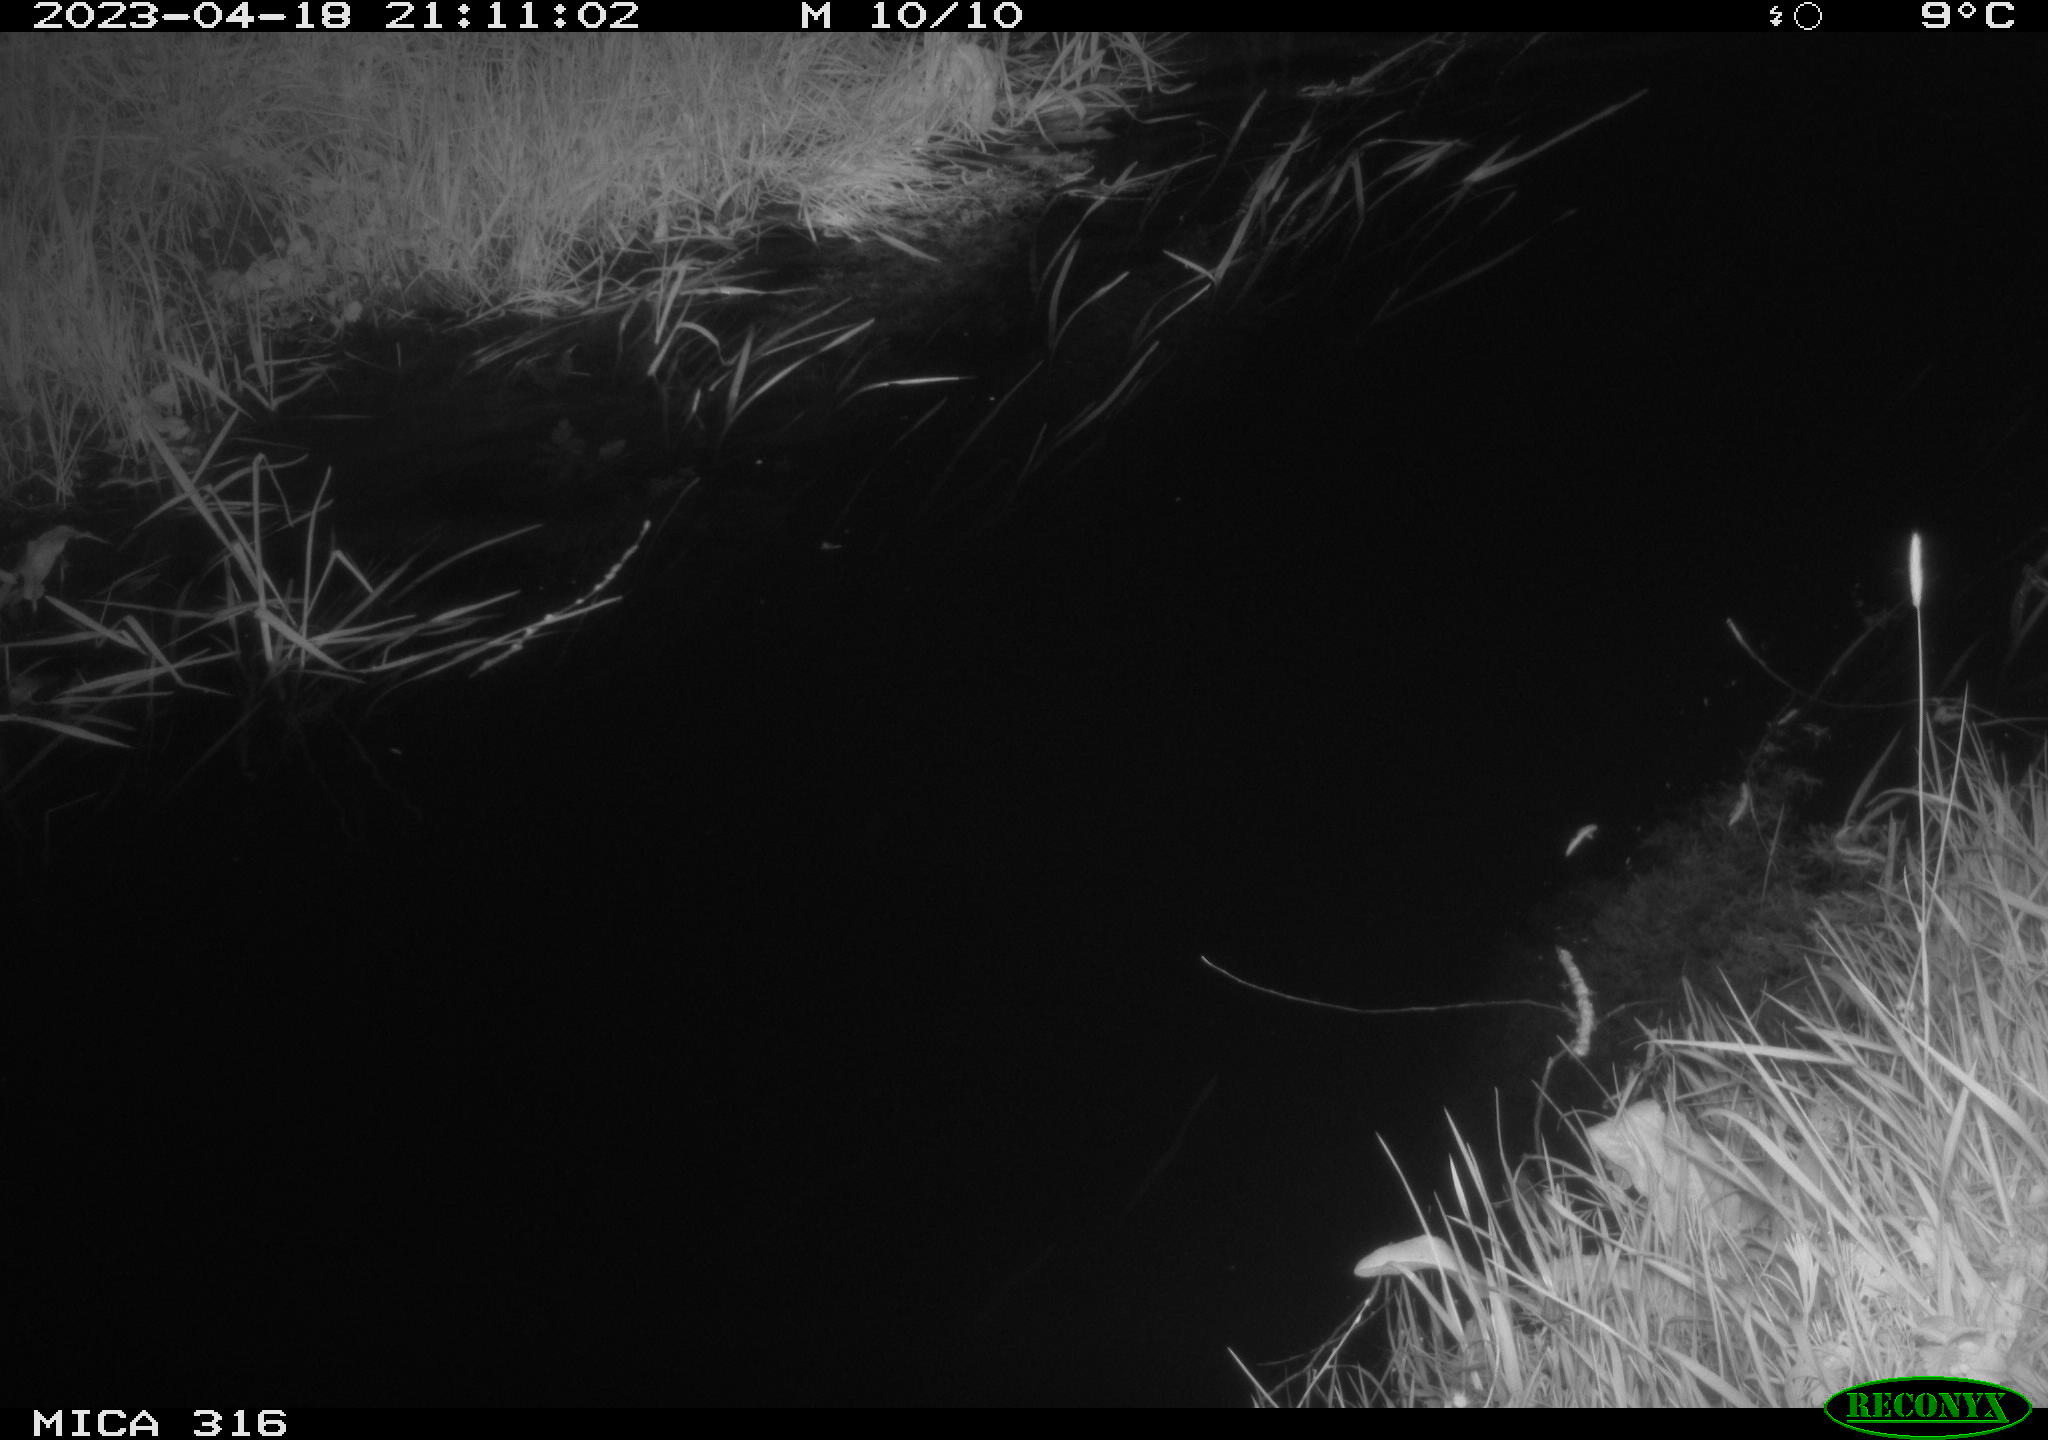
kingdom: Animalia
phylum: Chordata
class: Aves
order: Anseriformes
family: Anatidae
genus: Anas
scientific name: Anas
